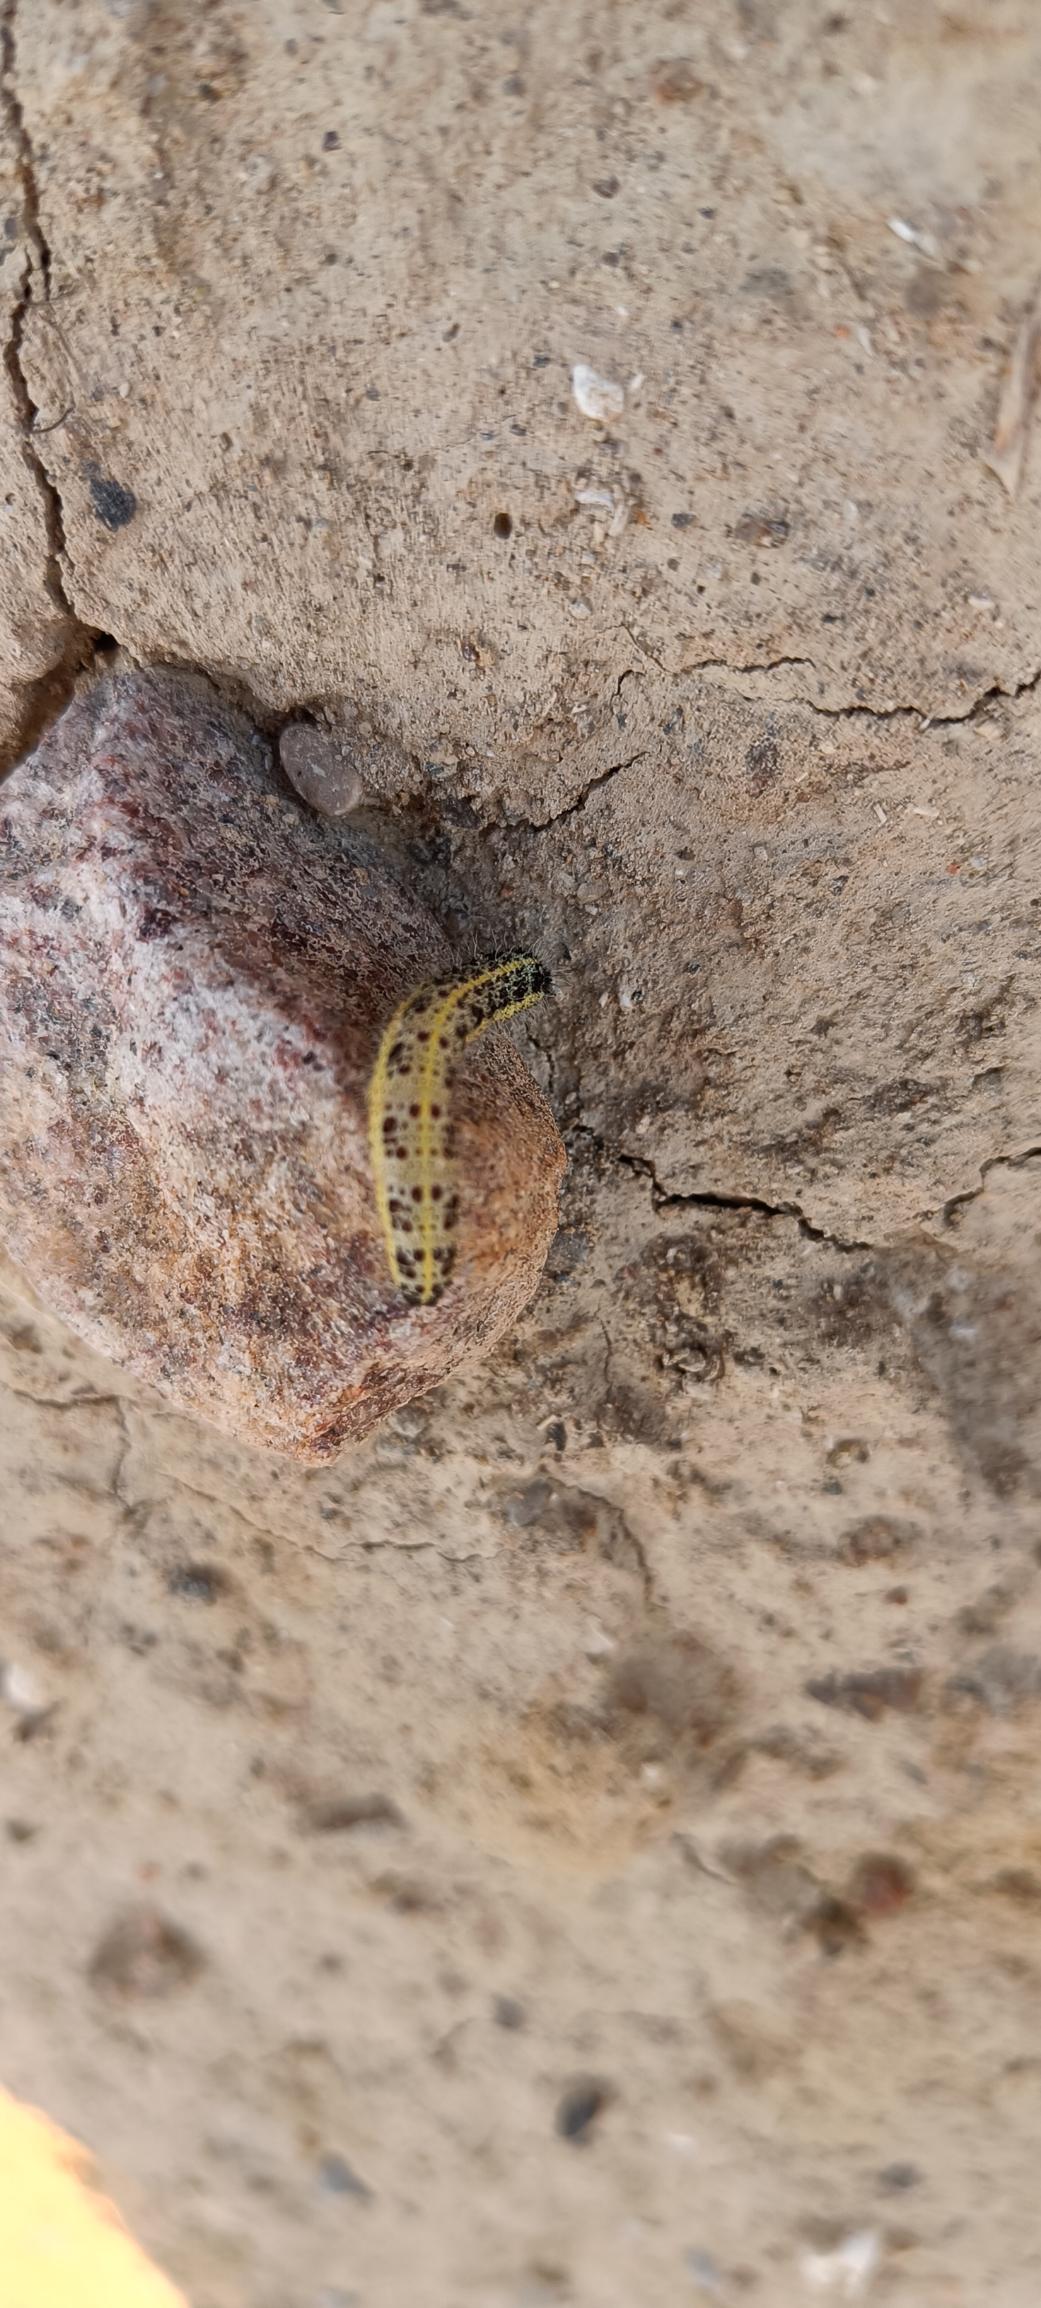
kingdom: Animalia
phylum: Arthropoda
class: Insecta
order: Lepidoptera
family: Pieridae
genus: Pieris
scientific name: Pieris brassicae
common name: Stor kålsommerfugl
